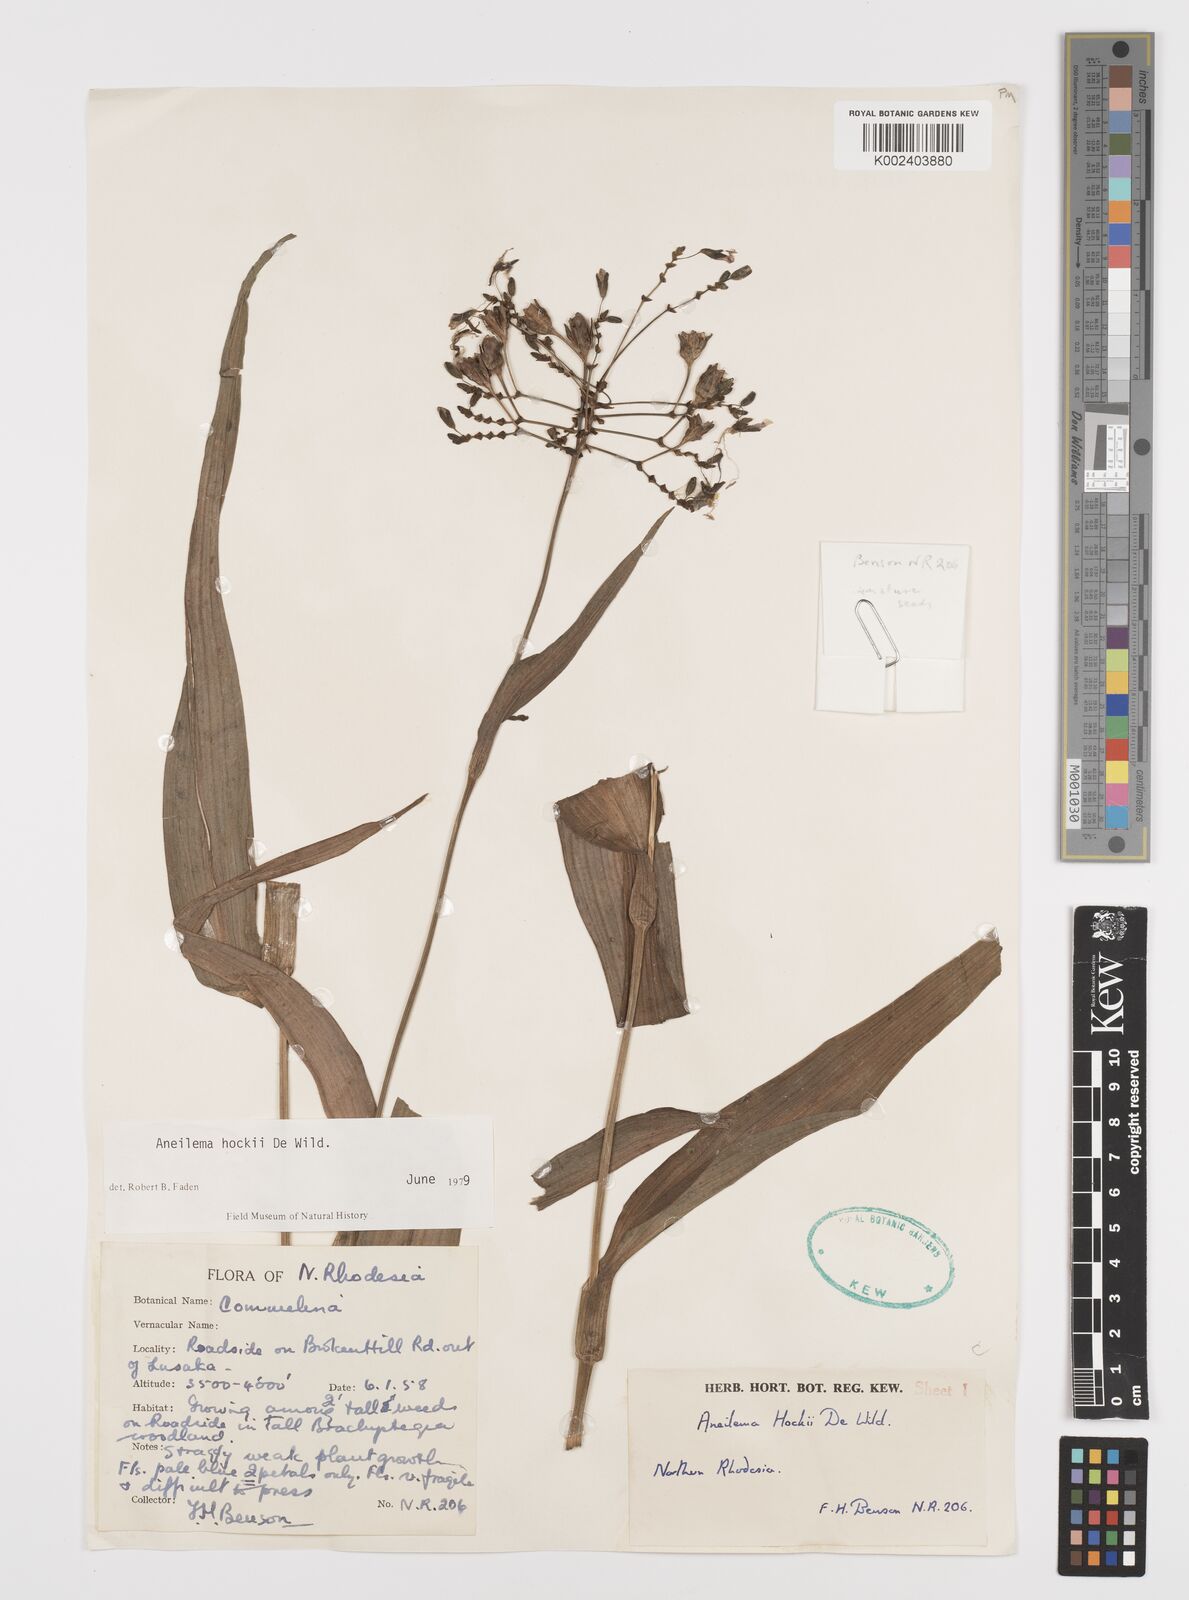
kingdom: Plantae
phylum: Tracheophyta
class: Liliopsida
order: Commelinales
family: Commelinaceae
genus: Aneilema
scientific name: Aneilema hockii
